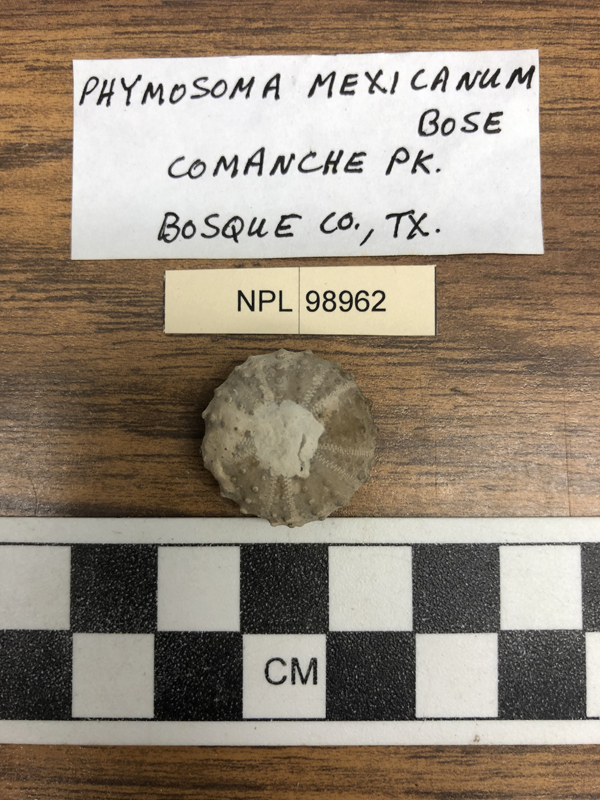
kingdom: Animalia
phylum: Echinodermata
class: Echinoidea
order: Phymosomatoida
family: Phymosomatidae
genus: Phymosoma
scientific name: Phymosoma mexicanum
